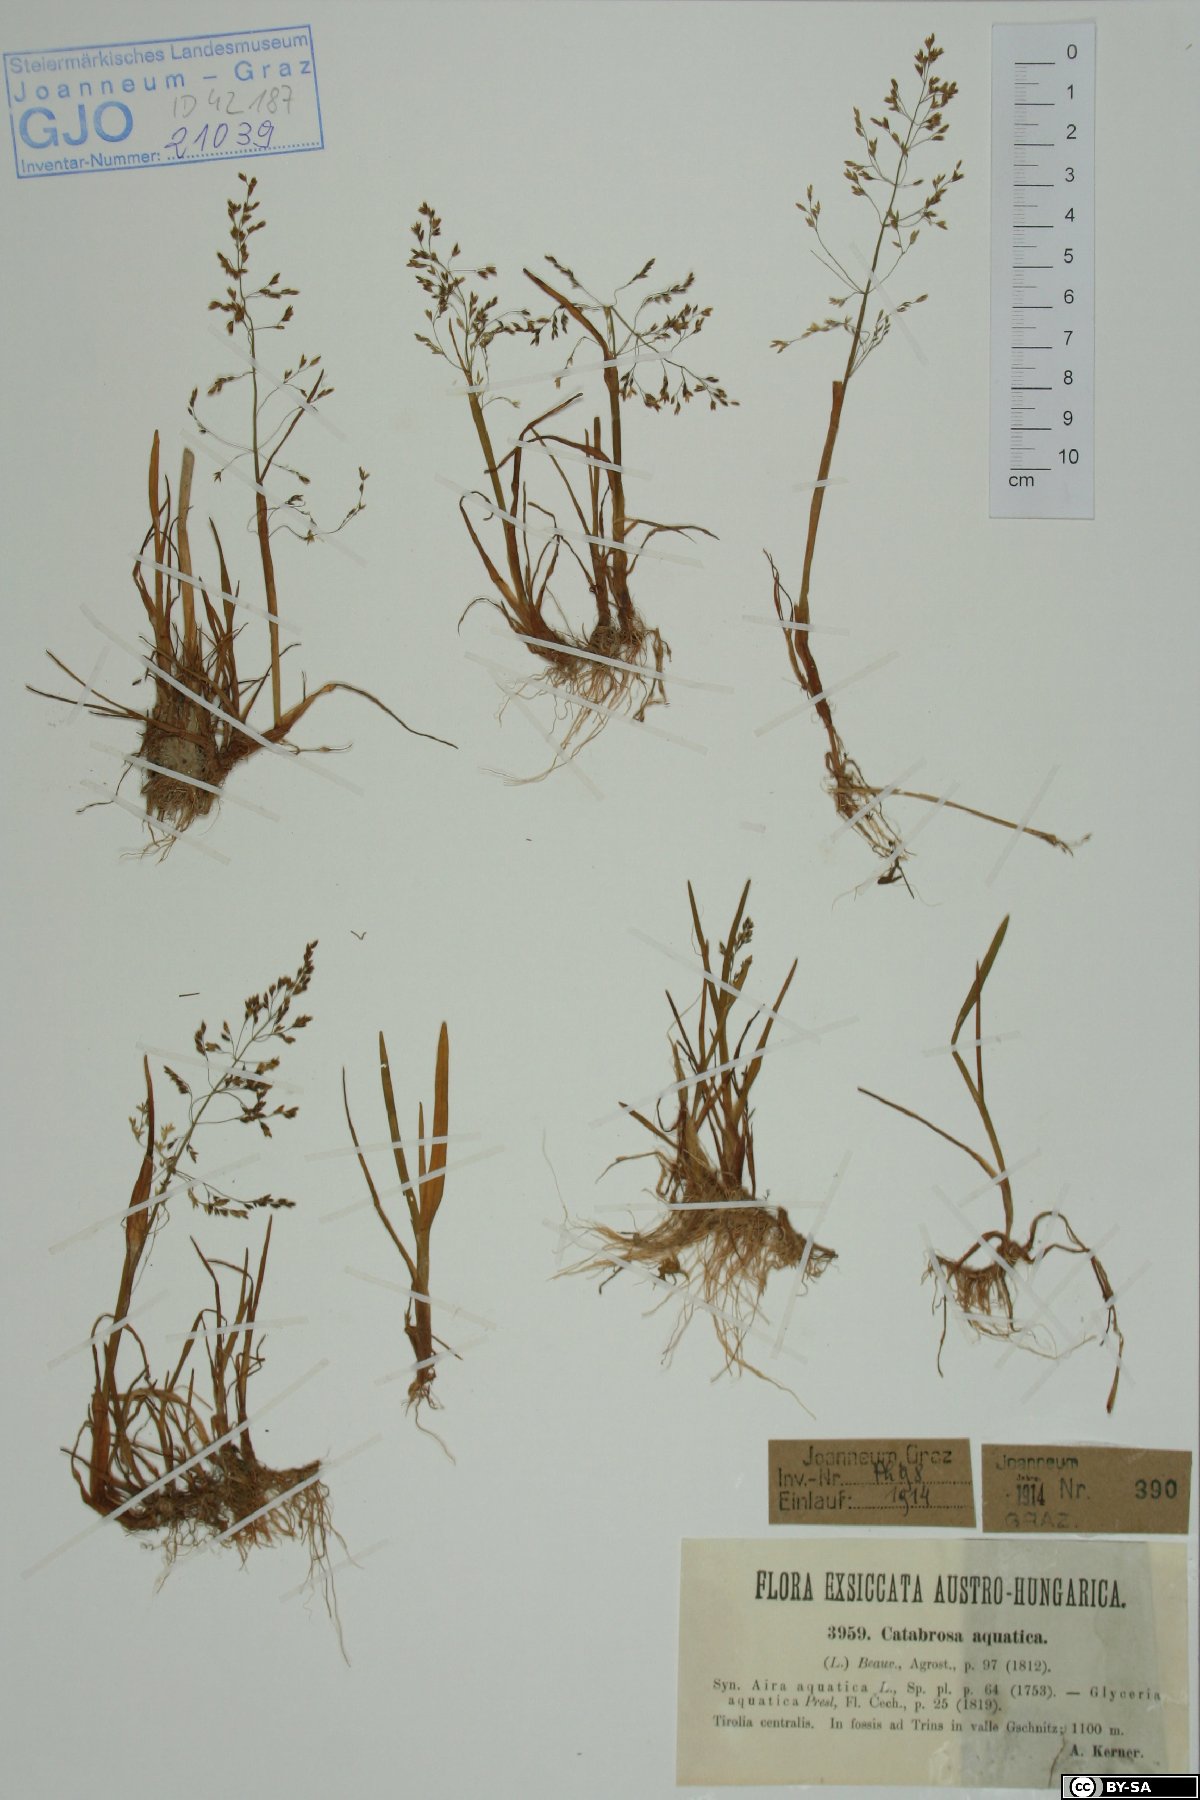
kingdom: Plantae
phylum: Tracheophyta
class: Liliopsida
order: Poales
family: Poaceae
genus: Catabrosa
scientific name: Catabrosa aquatica
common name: Whorl-grass
